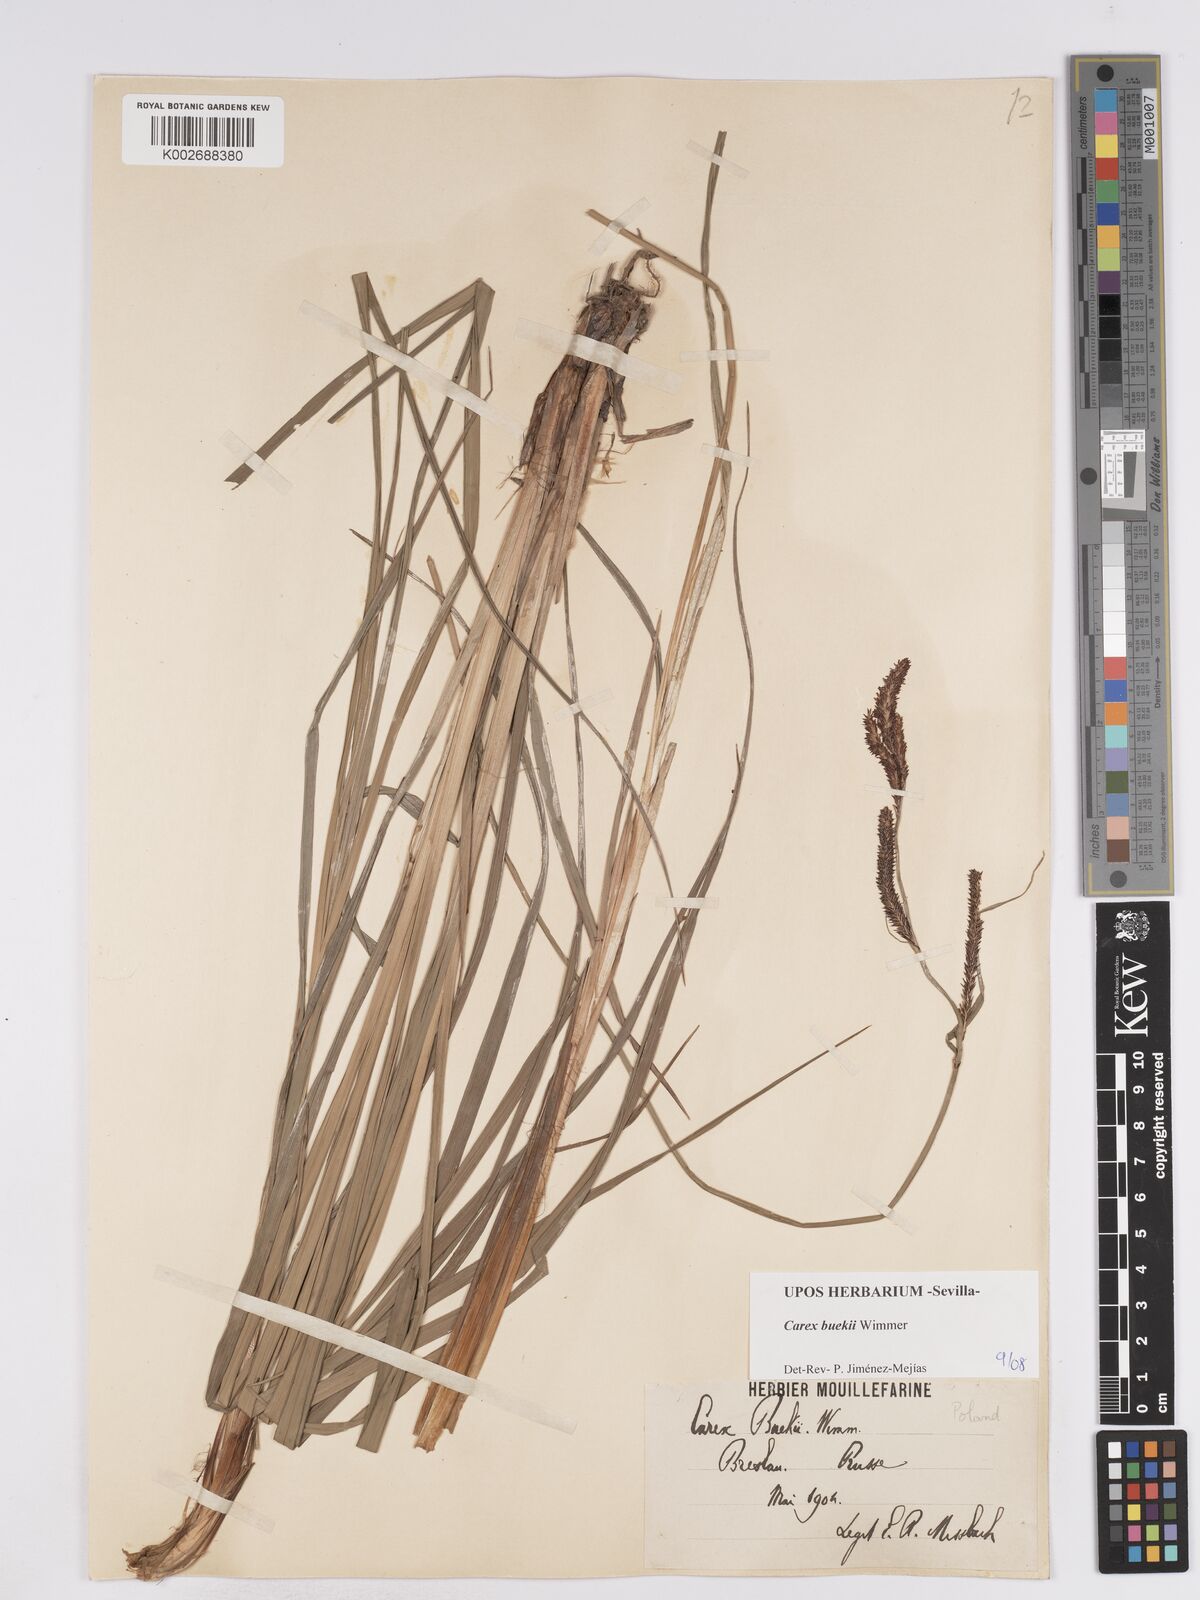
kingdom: Plantae
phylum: Tracheophyta
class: Liliopsida
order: Poales
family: Cyperaceae
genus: Carex
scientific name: Carex buekii
